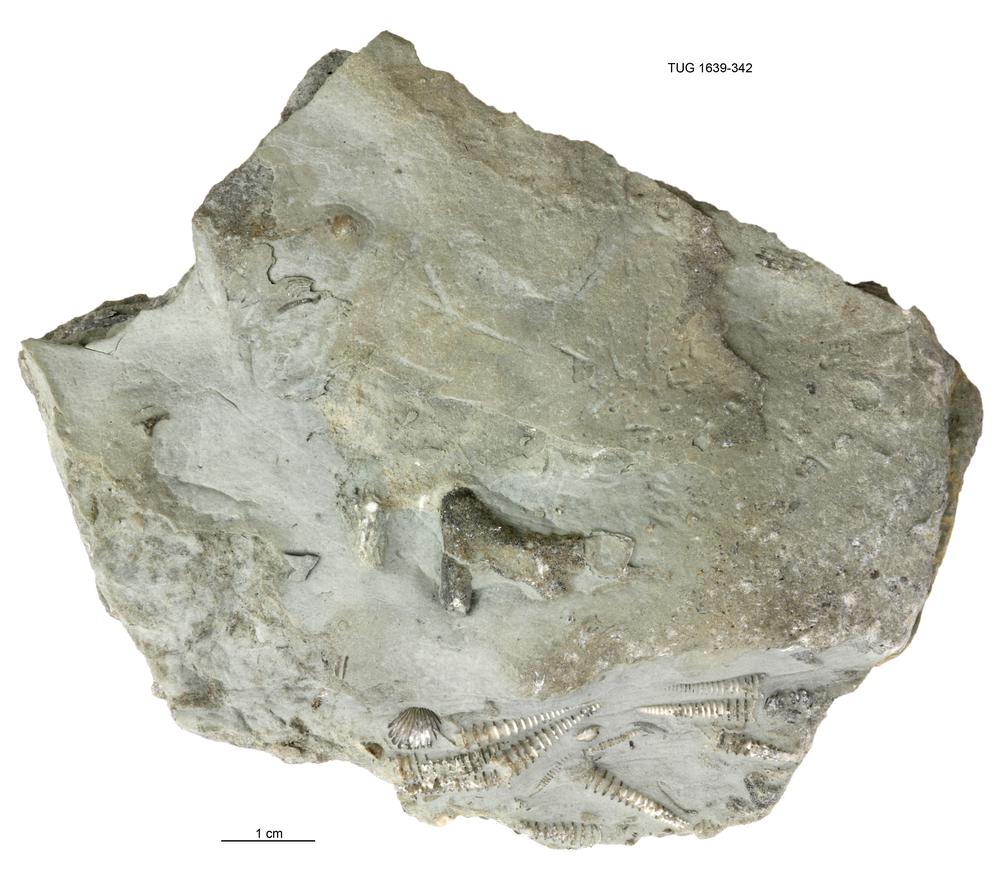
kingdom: Animalia
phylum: Bryozoa
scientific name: Bryozoa
